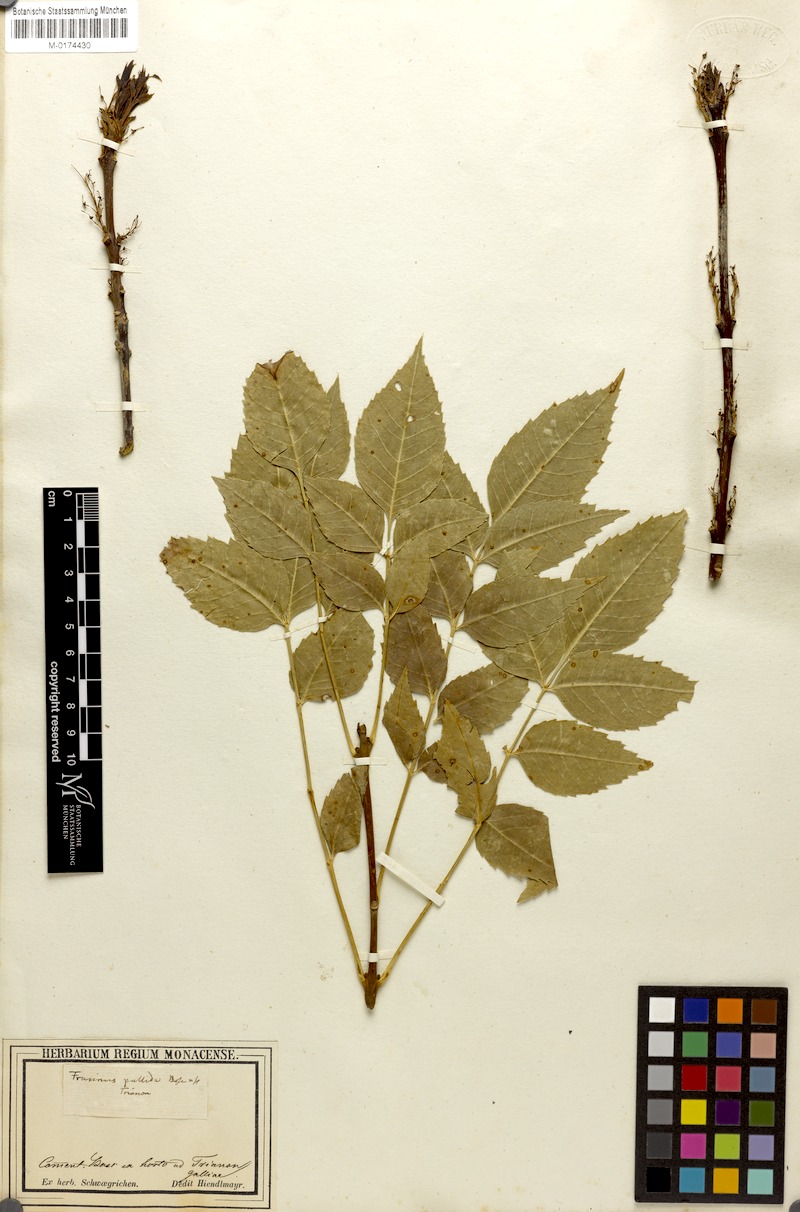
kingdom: Plantae
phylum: Tracheophyta
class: Magnoliopsida
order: Lamiales
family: Oleaceae
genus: Fraxinus
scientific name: Fraxinus caroliniana
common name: Carolina ash
